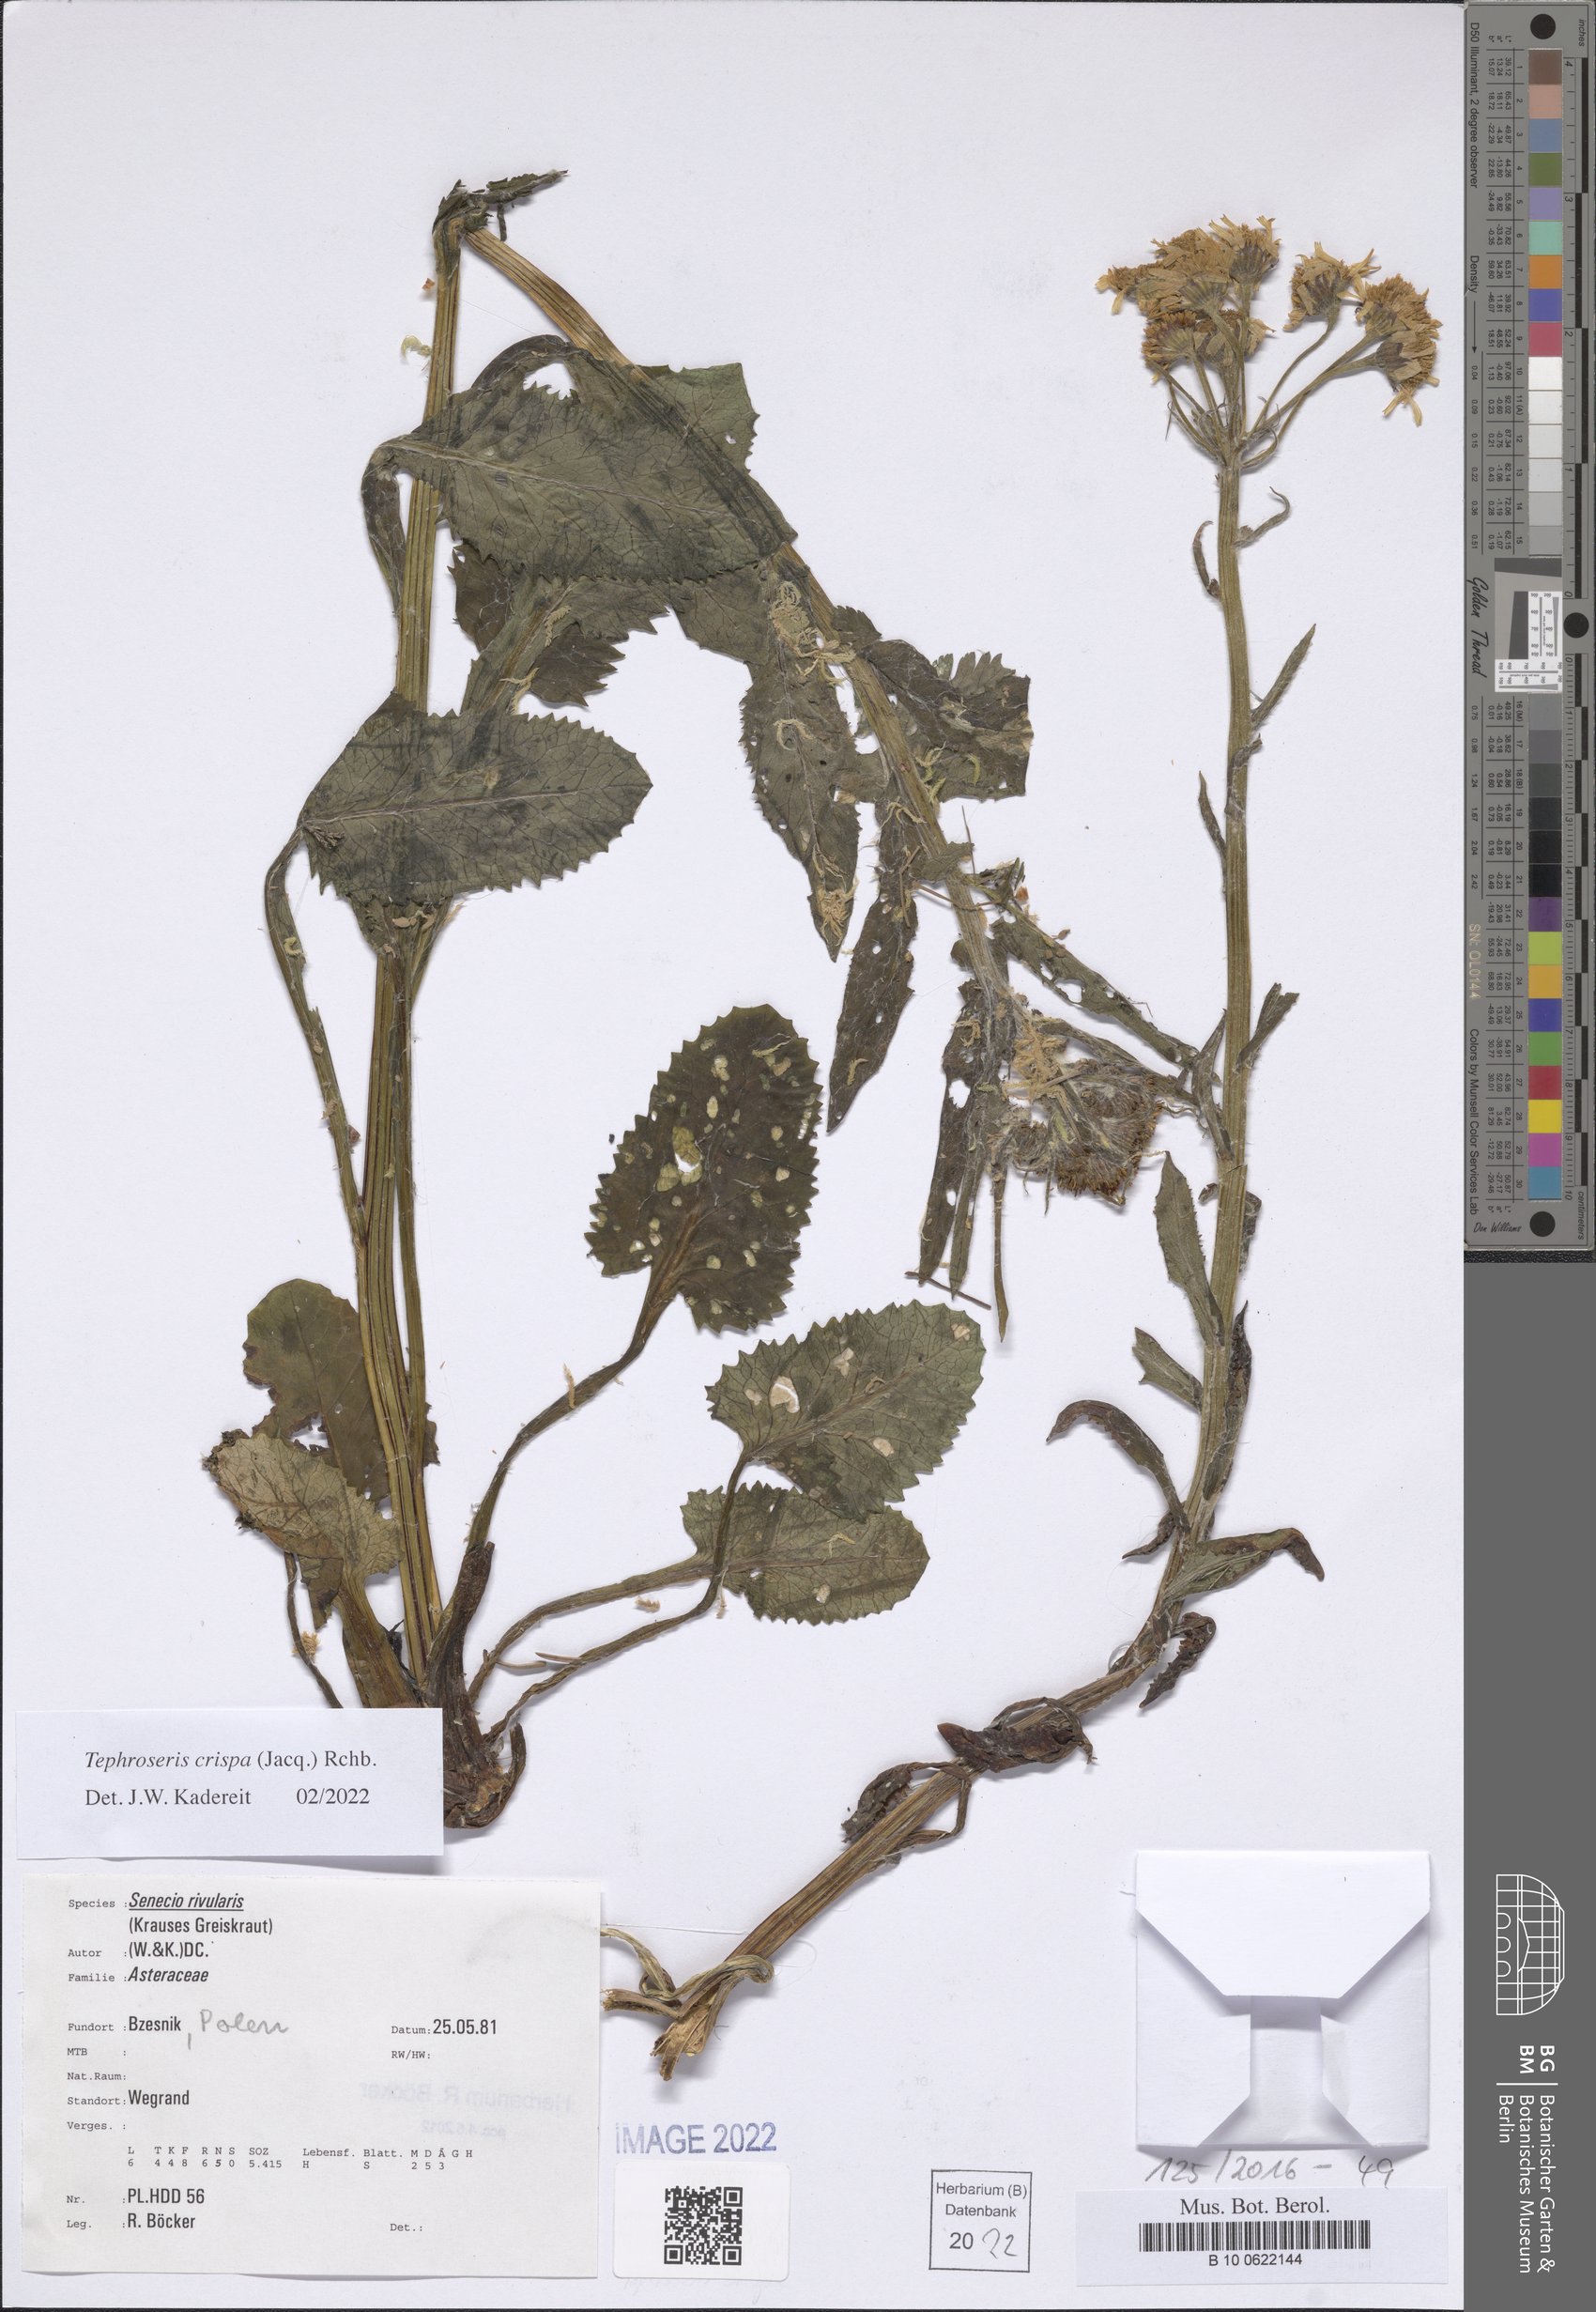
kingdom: Plantae
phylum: Tracheophyta
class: Magnoliopsida
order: Asterales
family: Asteraceae
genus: Tephroseris
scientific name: Tephroseris crispa
